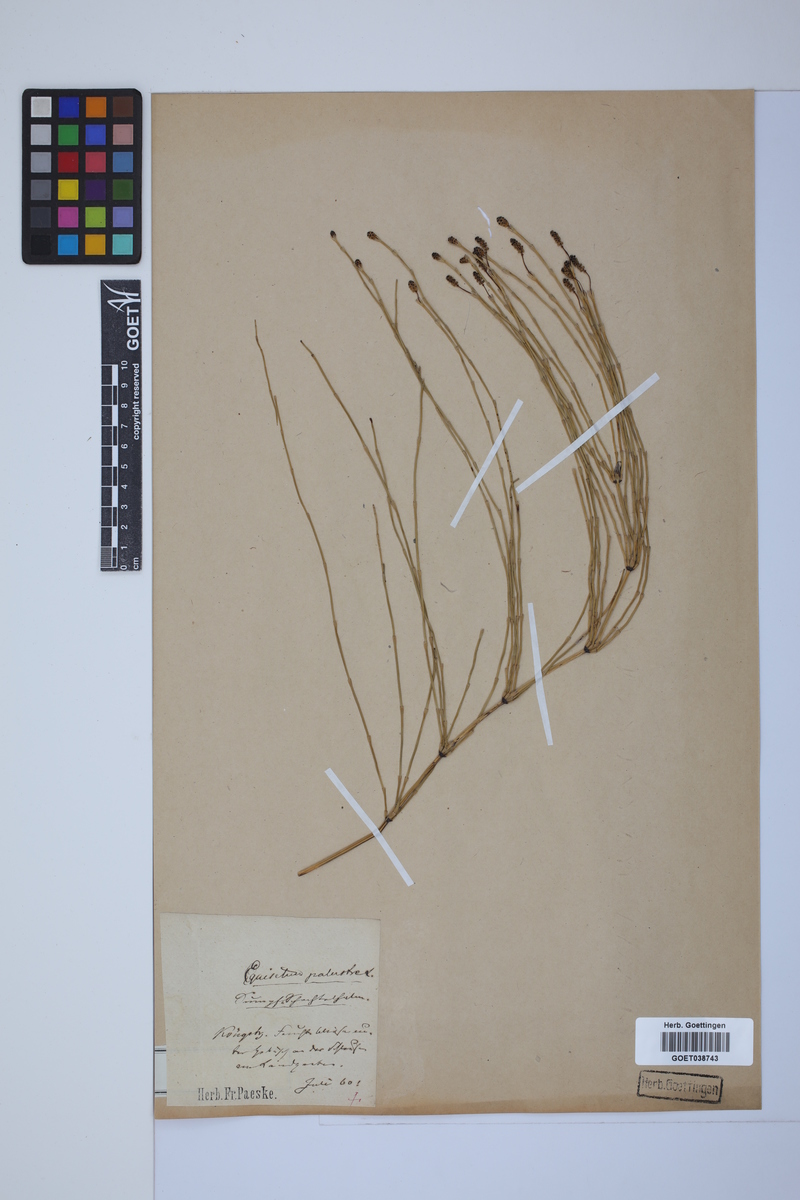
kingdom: Plantae
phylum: Tracheophyta
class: Polypodiopsida
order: Equisetales
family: Equisetaceae
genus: Equisetum
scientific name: Equisetum palustre
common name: Marsh horsetail
